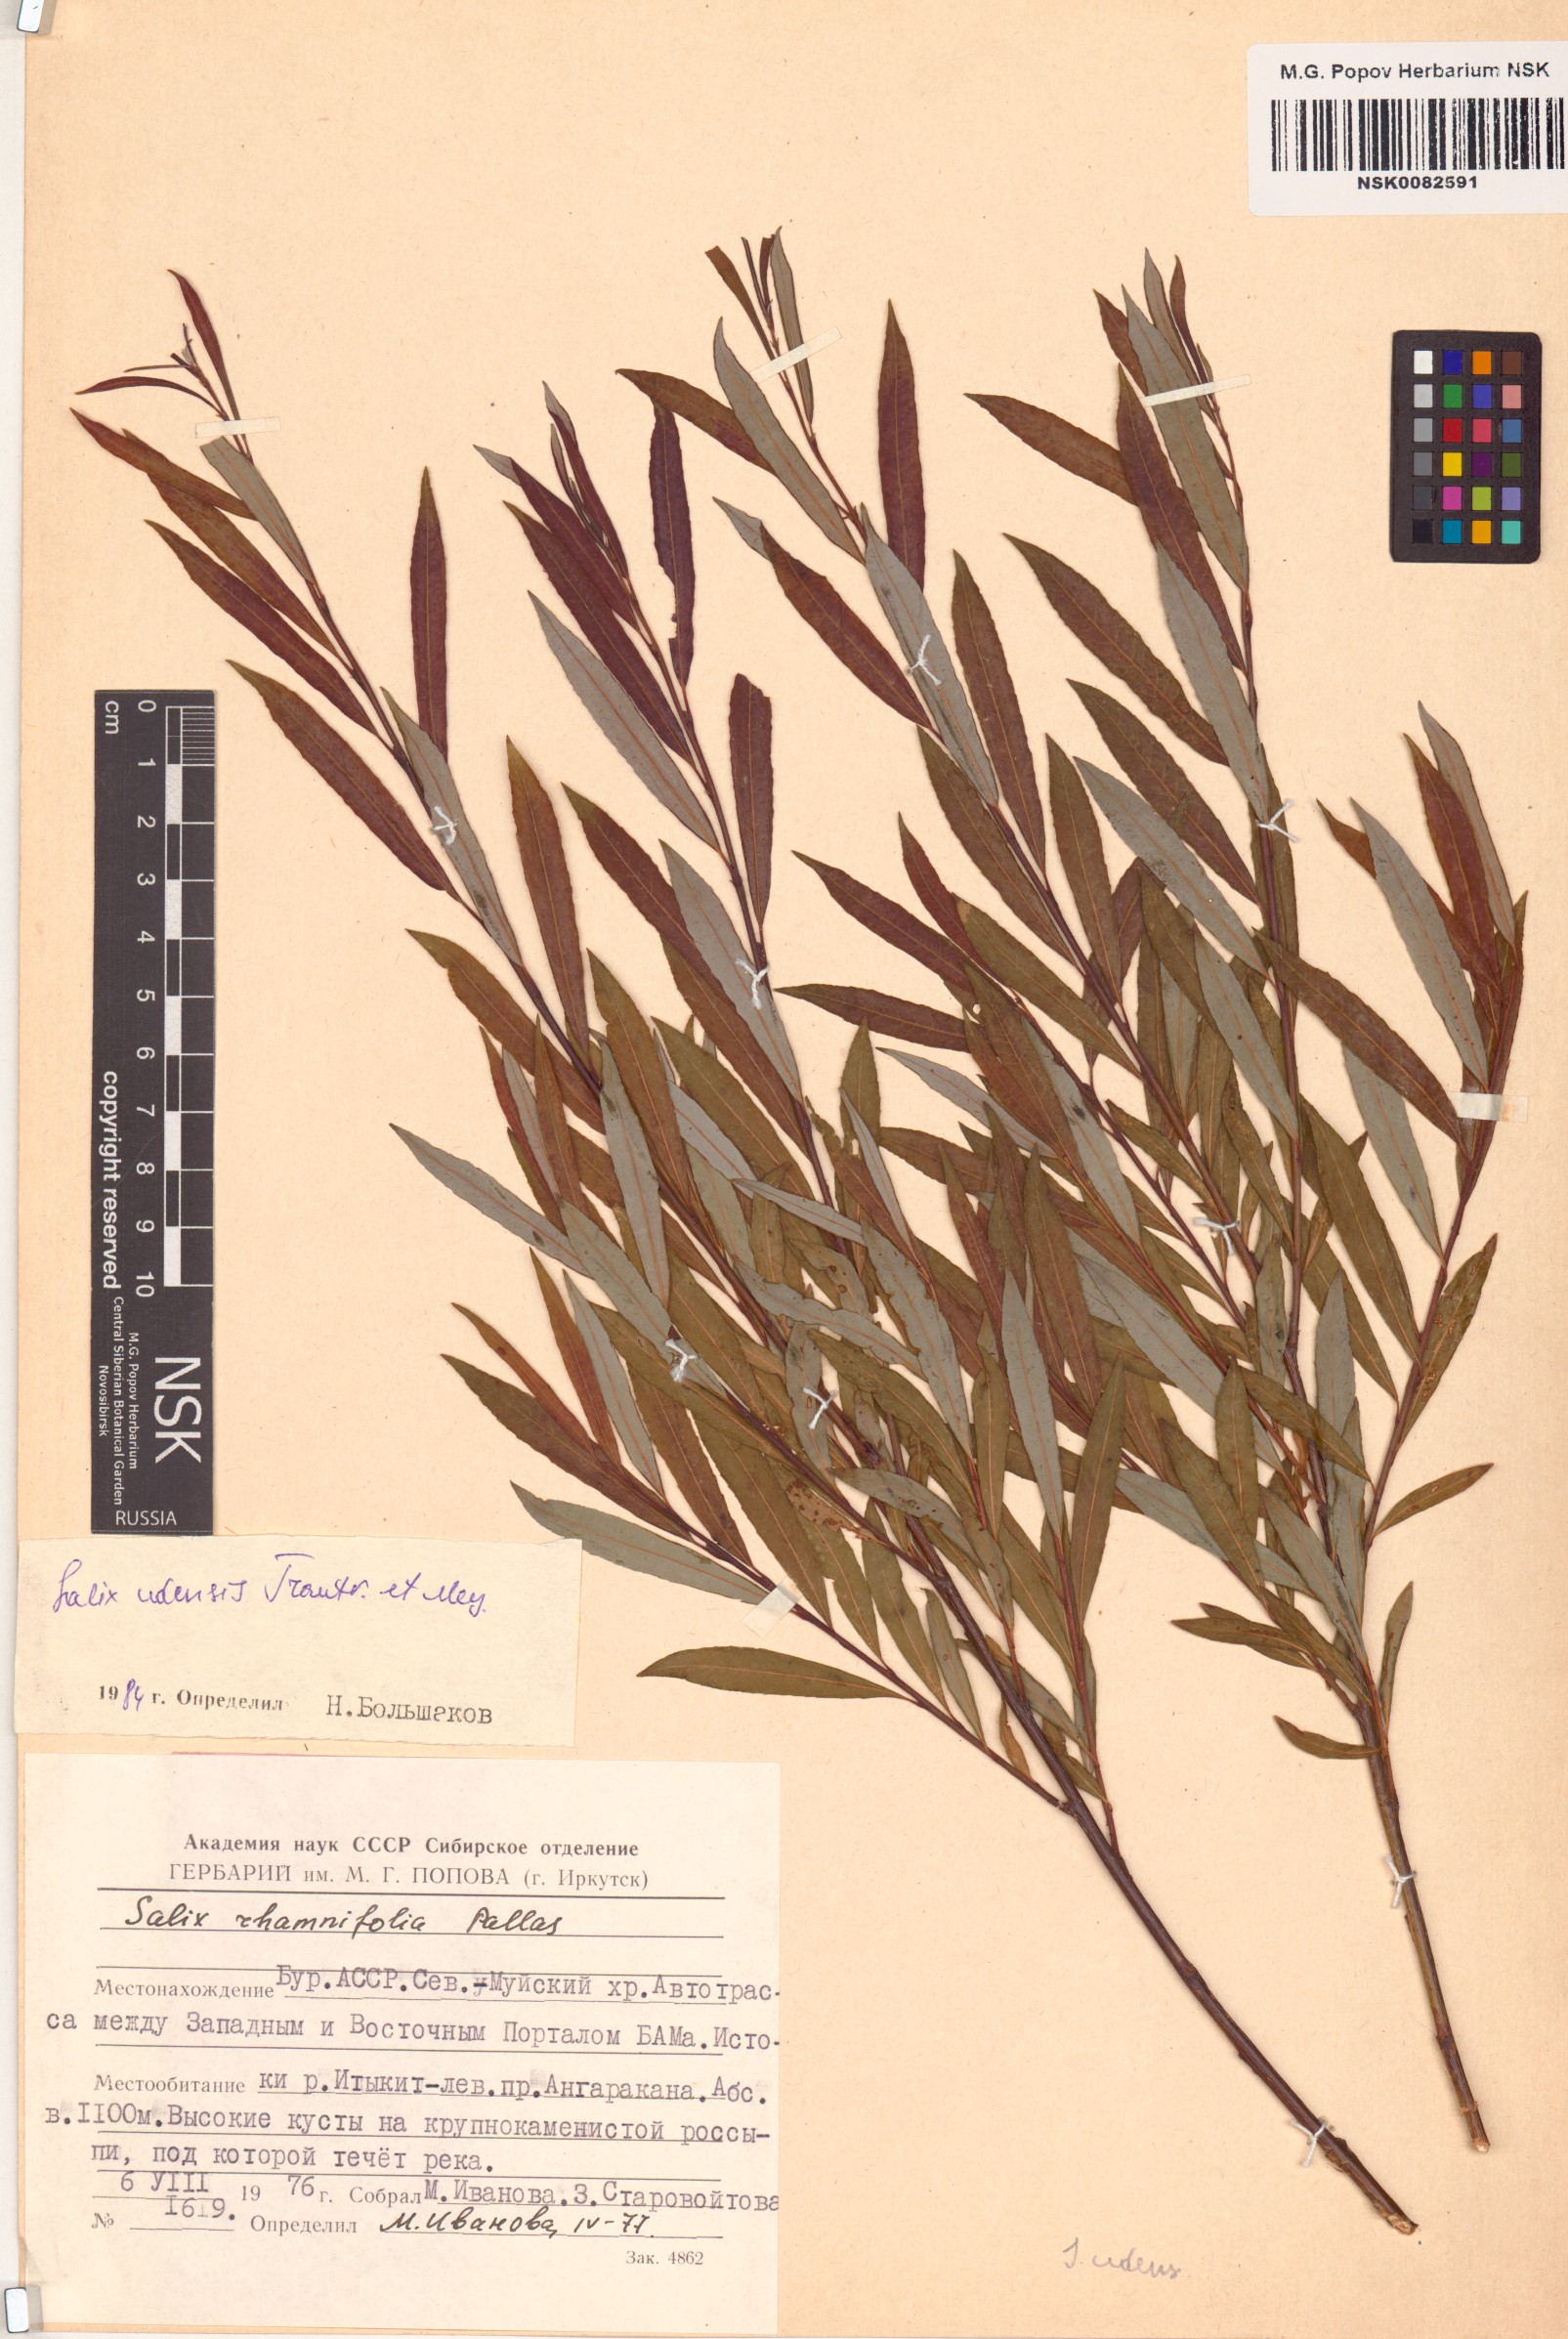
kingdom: Plantae
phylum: Tracheophyta
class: Magnoliopsida
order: Malpighiales
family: Salicaceae
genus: Salix
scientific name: Salix udensis
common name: Sachalin willow
